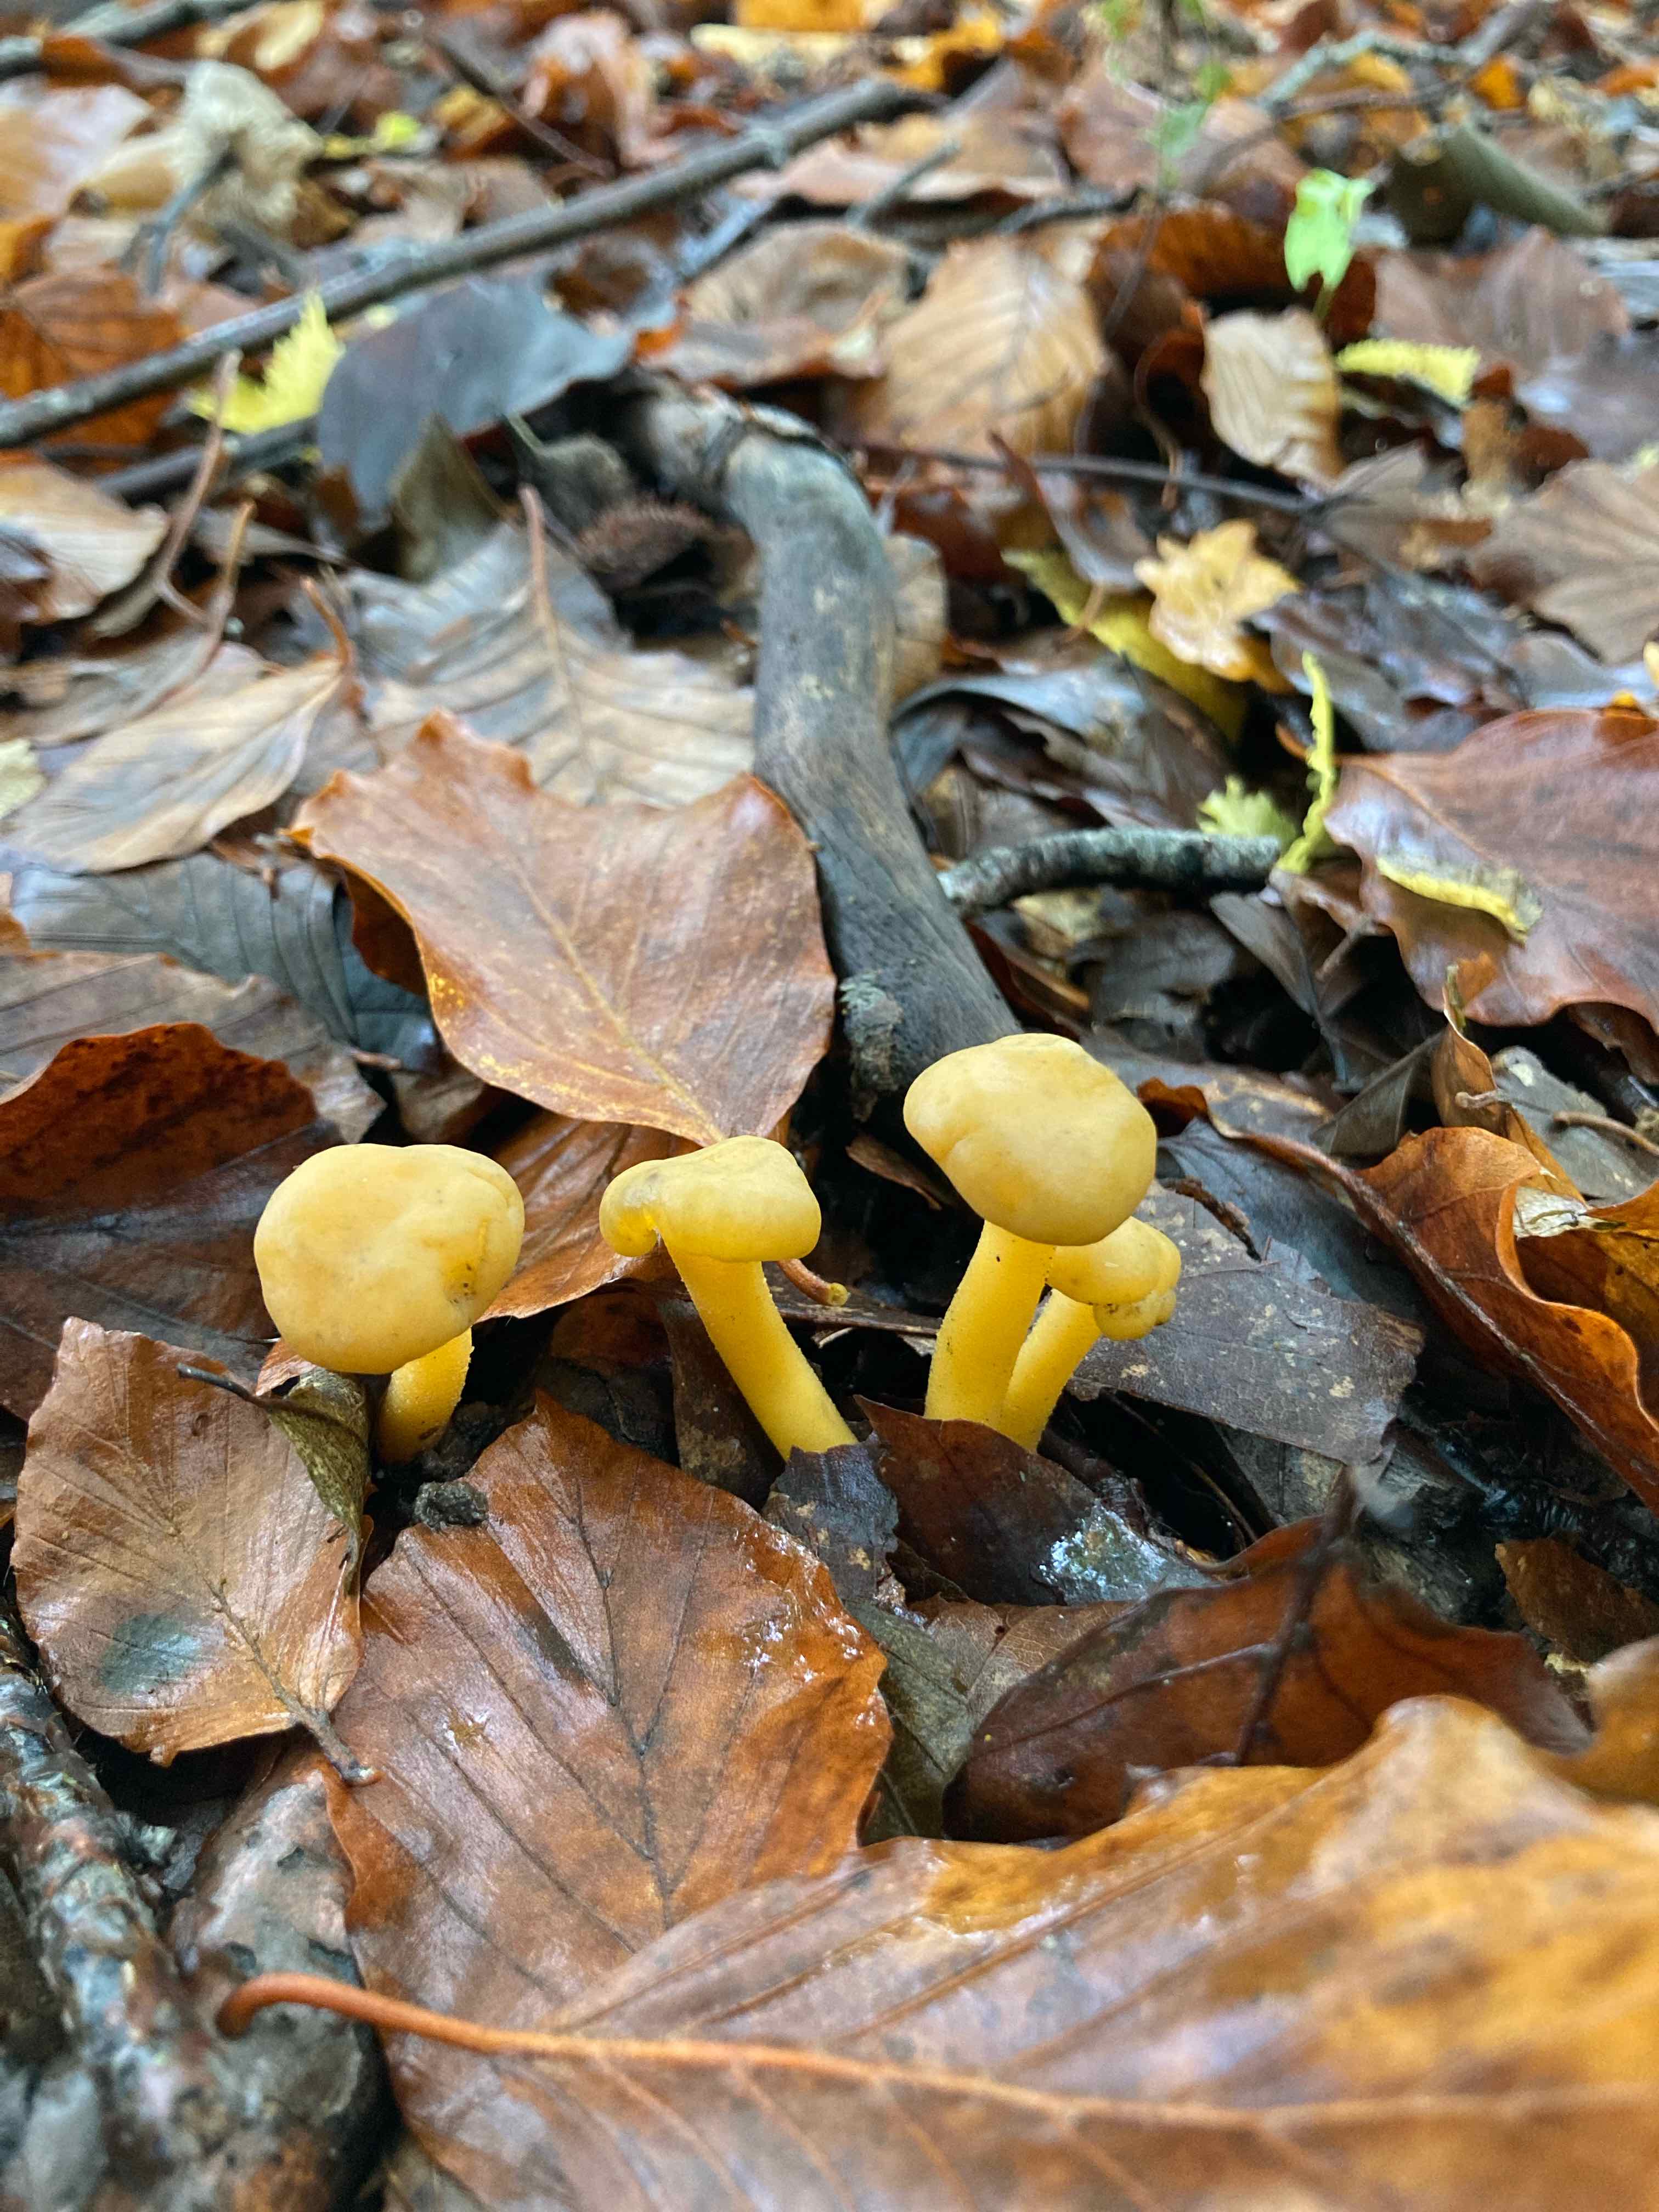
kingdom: Fungi
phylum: Ascomycota
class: Leotiomycetes
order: Leotiales
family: Leotiaceae
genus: Leotia
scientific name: Leotia lubrica
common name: ravsvamp
